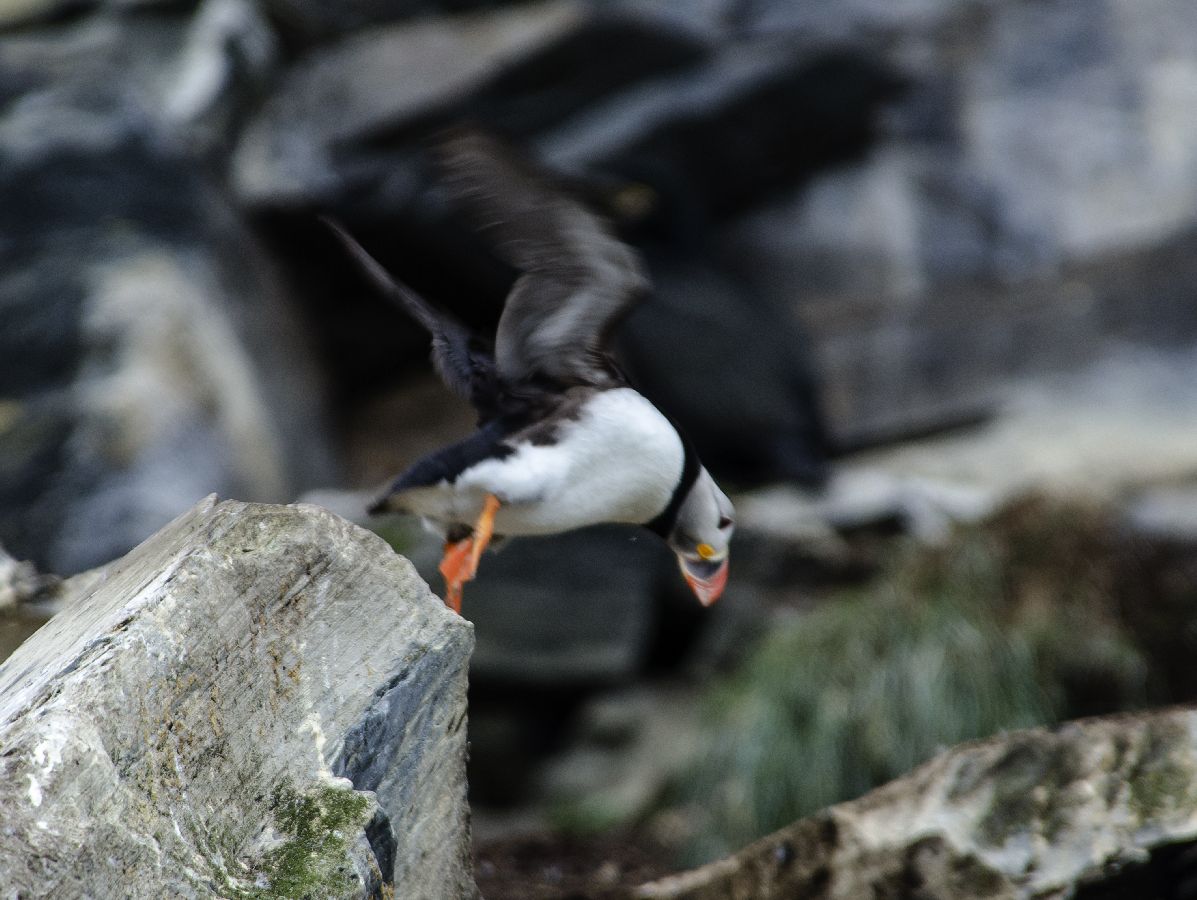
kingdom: Animalia
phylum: Chordata
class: Aves
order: Charadriiformes
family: Alcidae
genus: Fratercula
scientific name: Fratercula arctica
